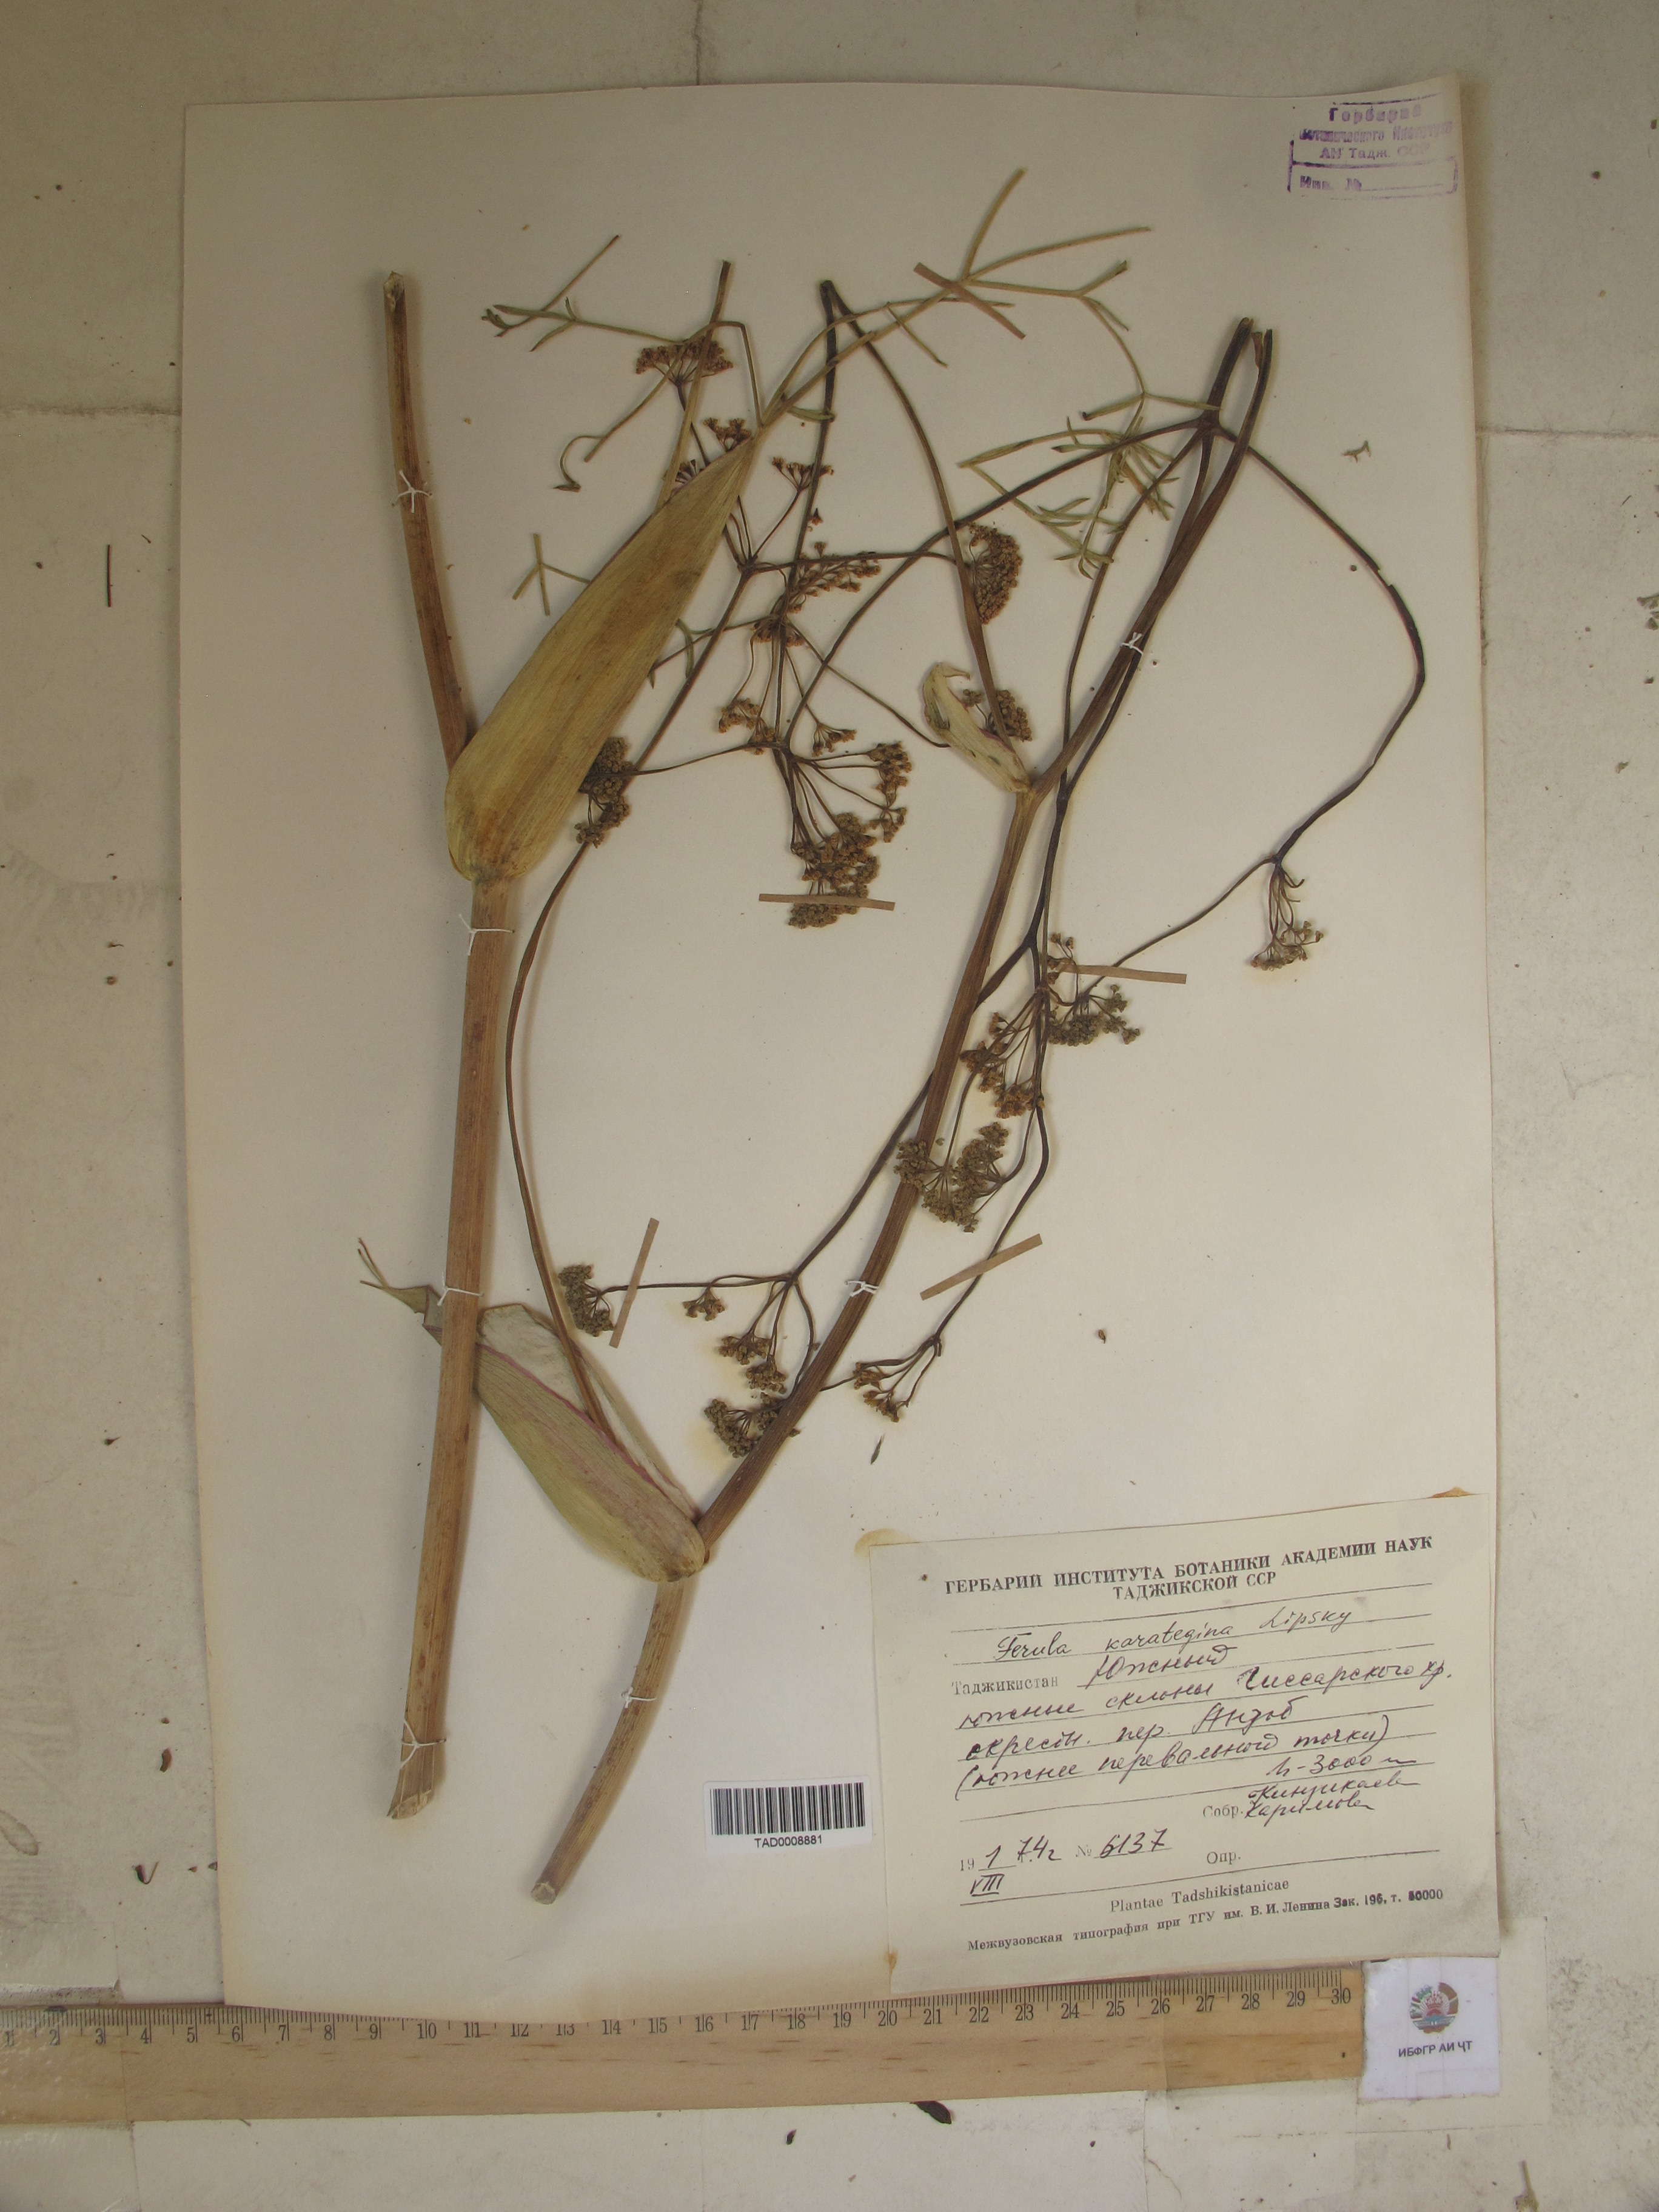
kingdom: Plantae
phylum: Tracheophyta
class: Magnoliopsida
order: Apiales
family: Apiaceae
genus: Ferula
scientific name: Ferula karategina
